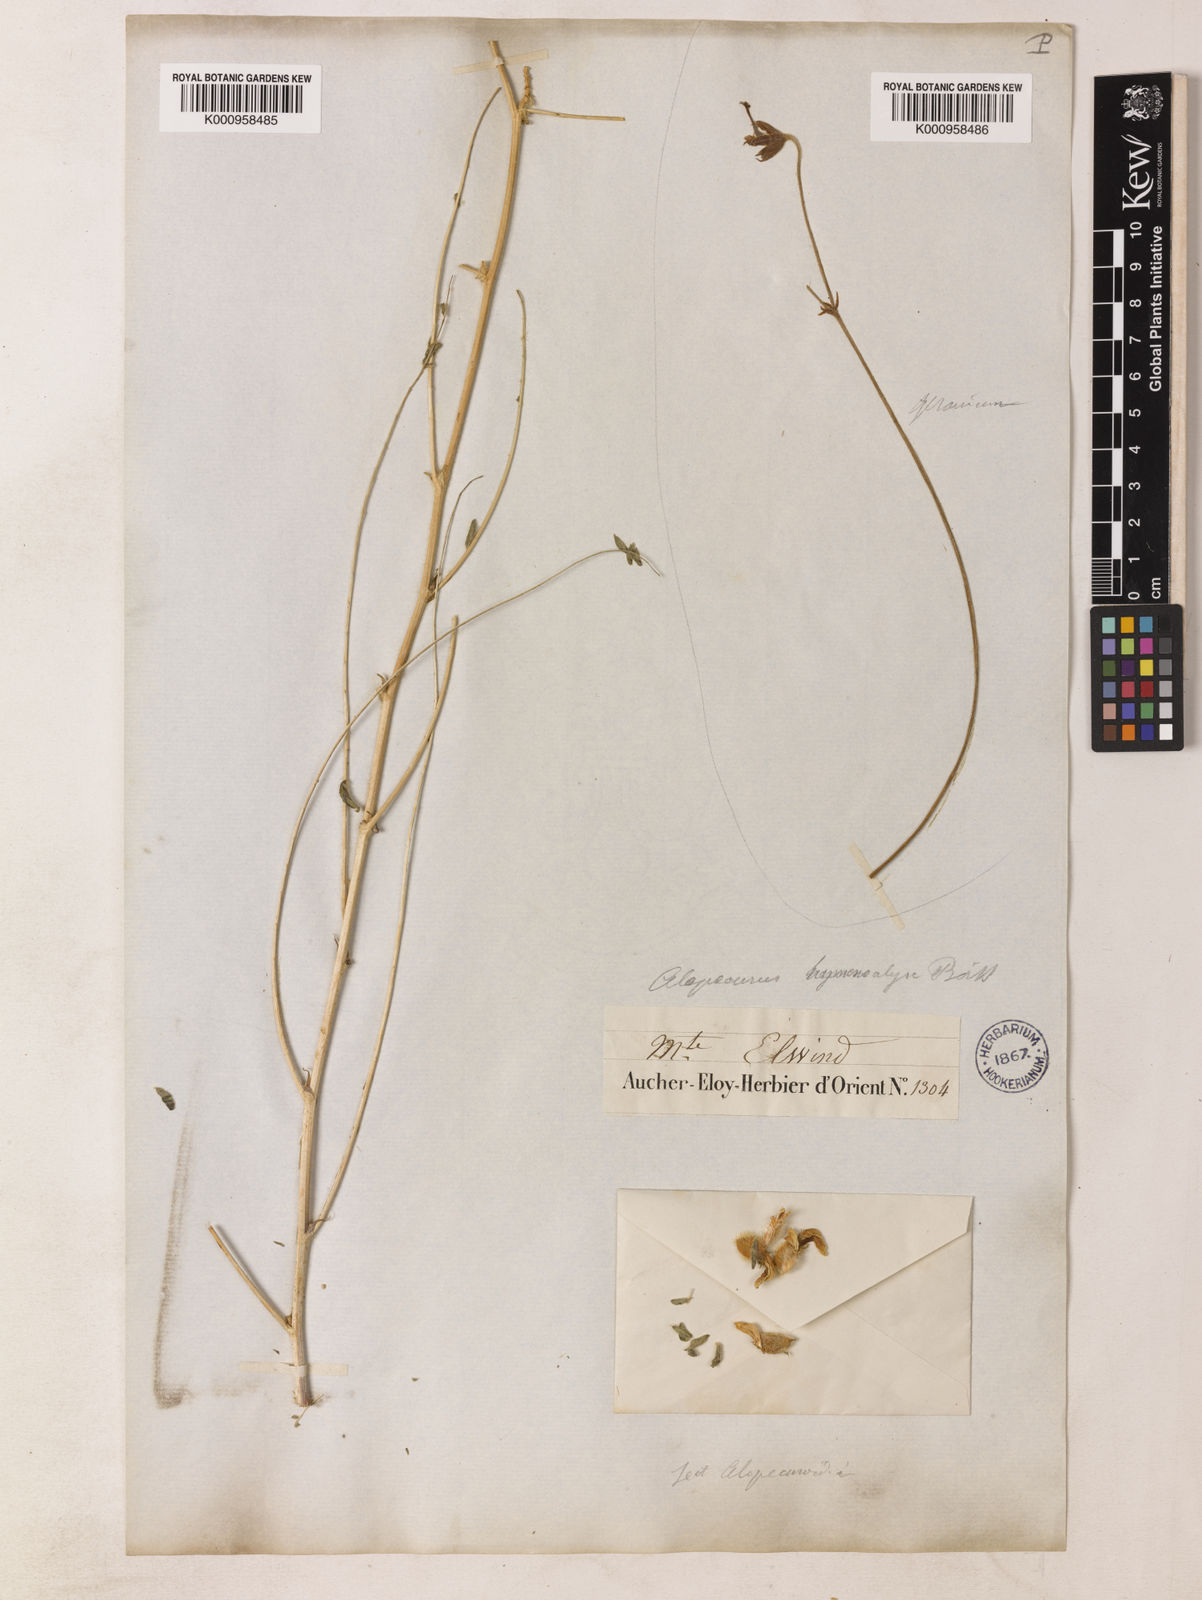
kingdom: Plantae
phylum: Tracheophyta
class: Magnoliopsida
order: Fabales
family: Fabaceae
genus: Astragalus
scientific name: Astragalus hymenocalyx
